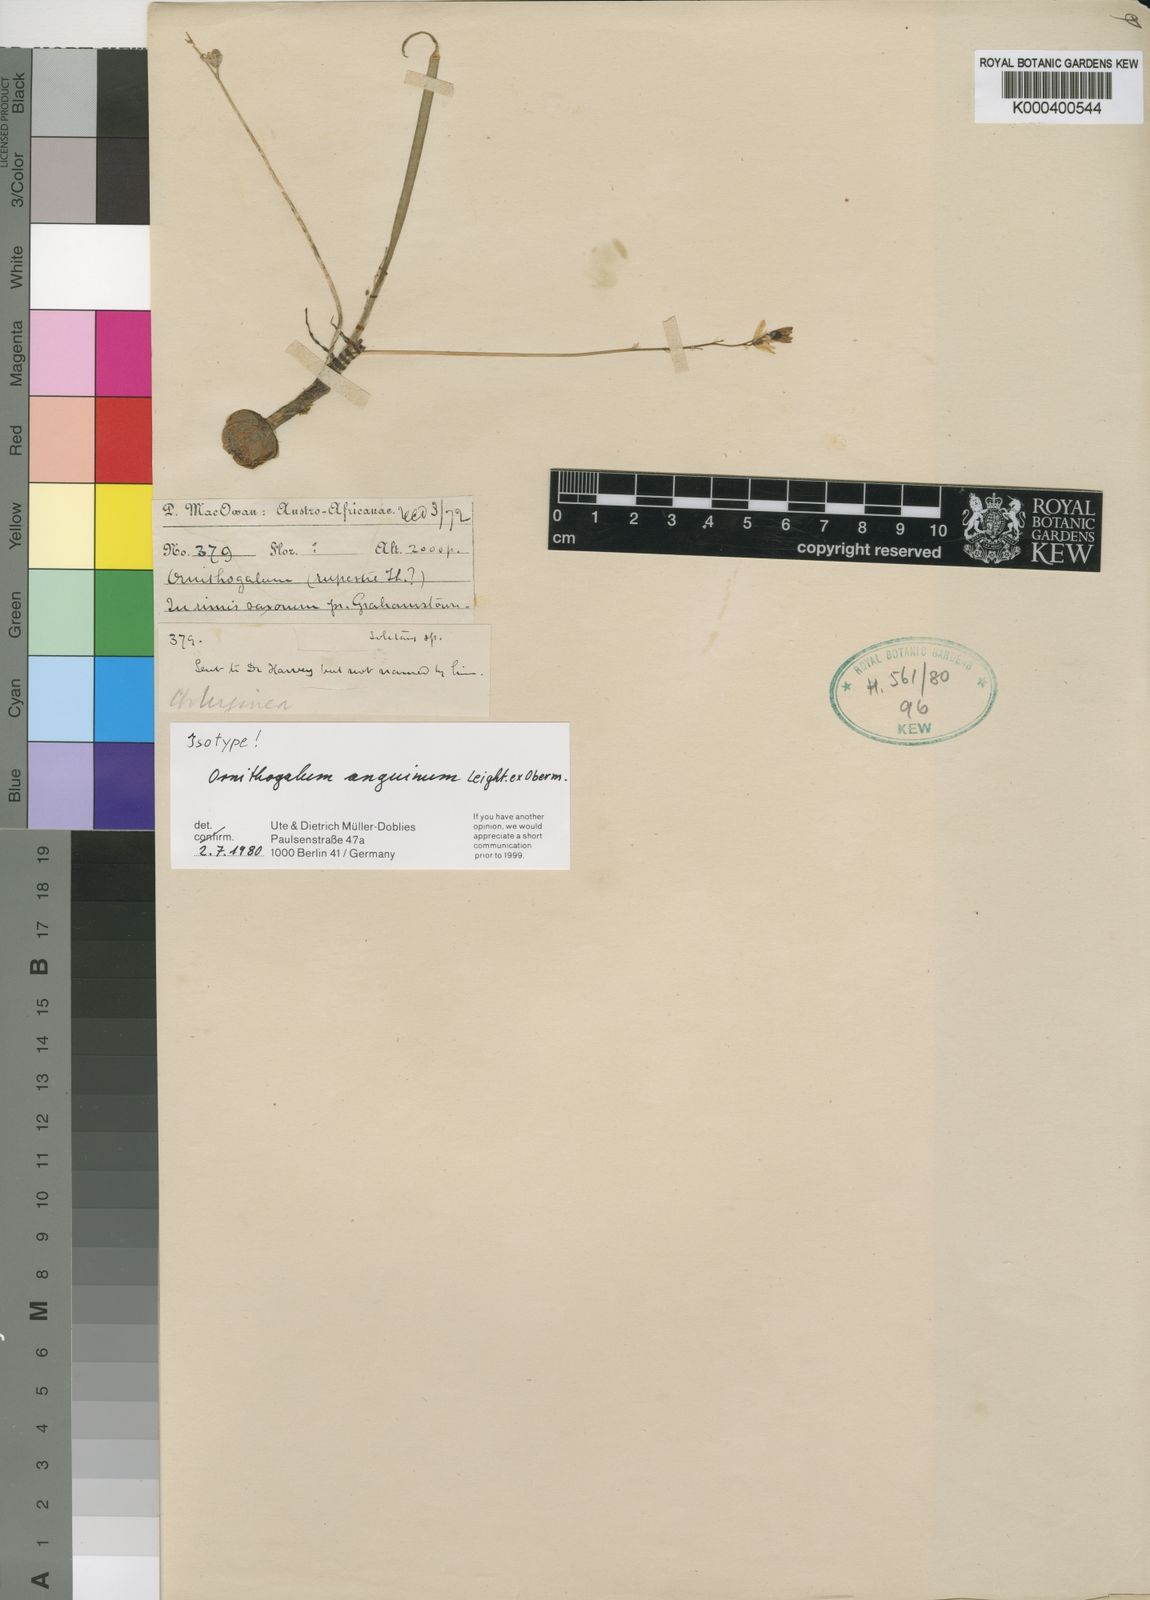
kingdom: Plantae
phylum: Tracheophyta
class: Liliopsida
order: Asparagales
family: Asparagaceae
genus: Ornithogalum
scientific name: Ornithogalum anguinum
